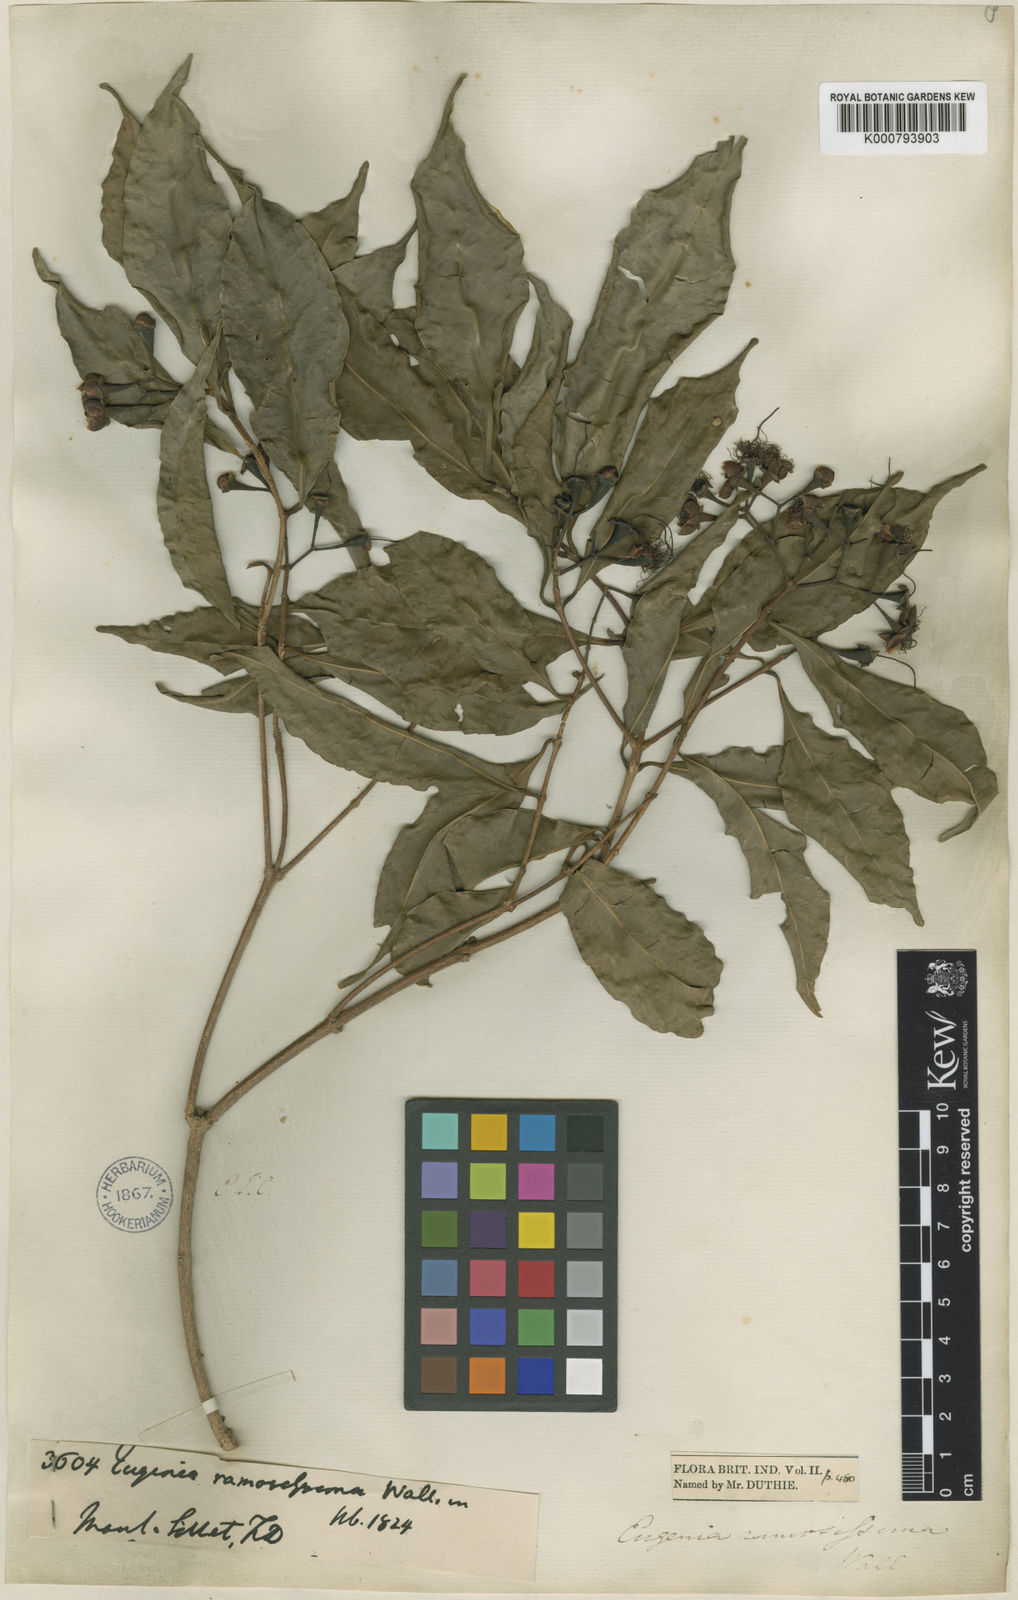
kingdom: Plantae
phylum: Tracheophyta
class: Magnoliopsida
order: Myrtales
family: Myrtaceae
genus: Syzygium
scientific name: Syzygium ramosissimum
